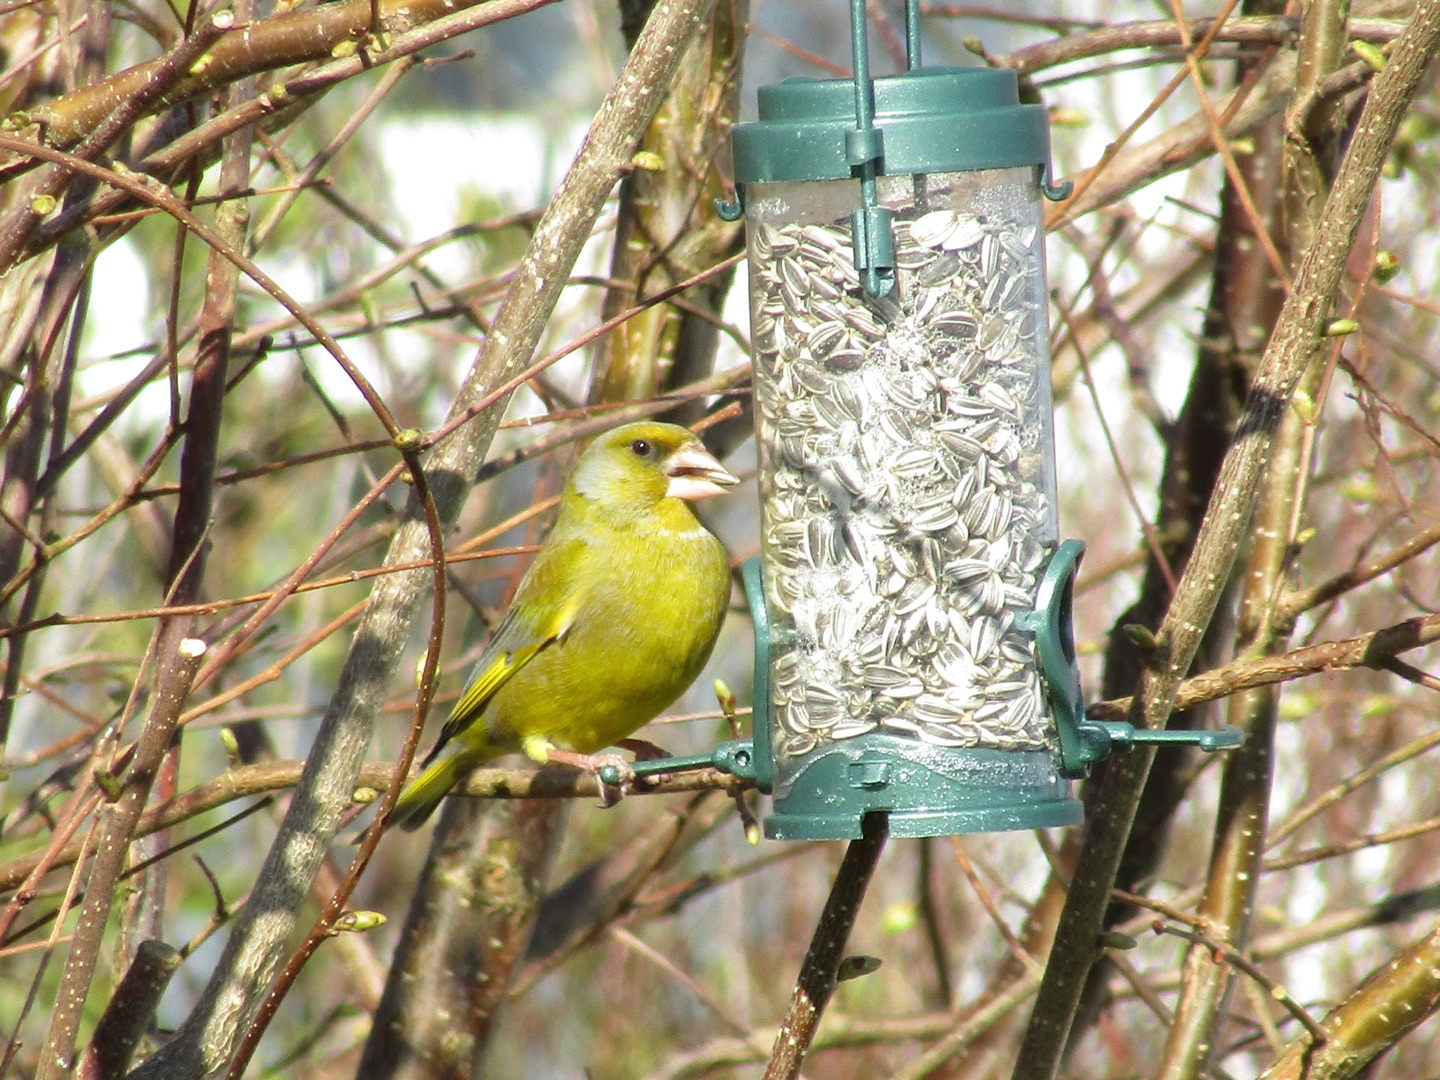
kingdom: Plantae
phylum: Tracheophyta
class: Liliopsida
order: Poales
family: Poaceae
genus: Chloris
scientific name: Chloris chloris
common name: Grønirisk
